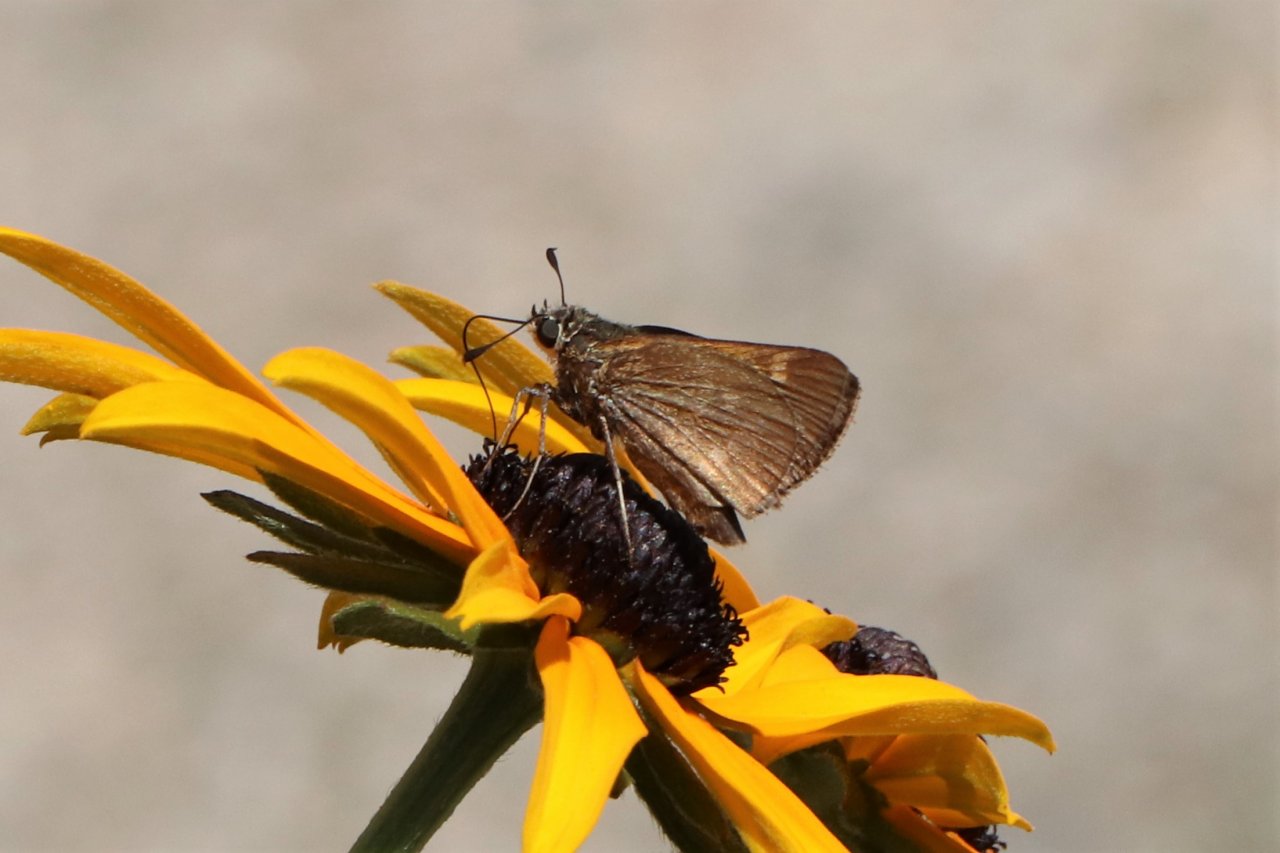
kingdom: Animalia
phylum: Arthropoda
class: Insecta
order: Lepidoptera
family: Hesperiidae
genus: Polites
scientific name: Polites themistocles
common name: Tawny-edged Skipper
